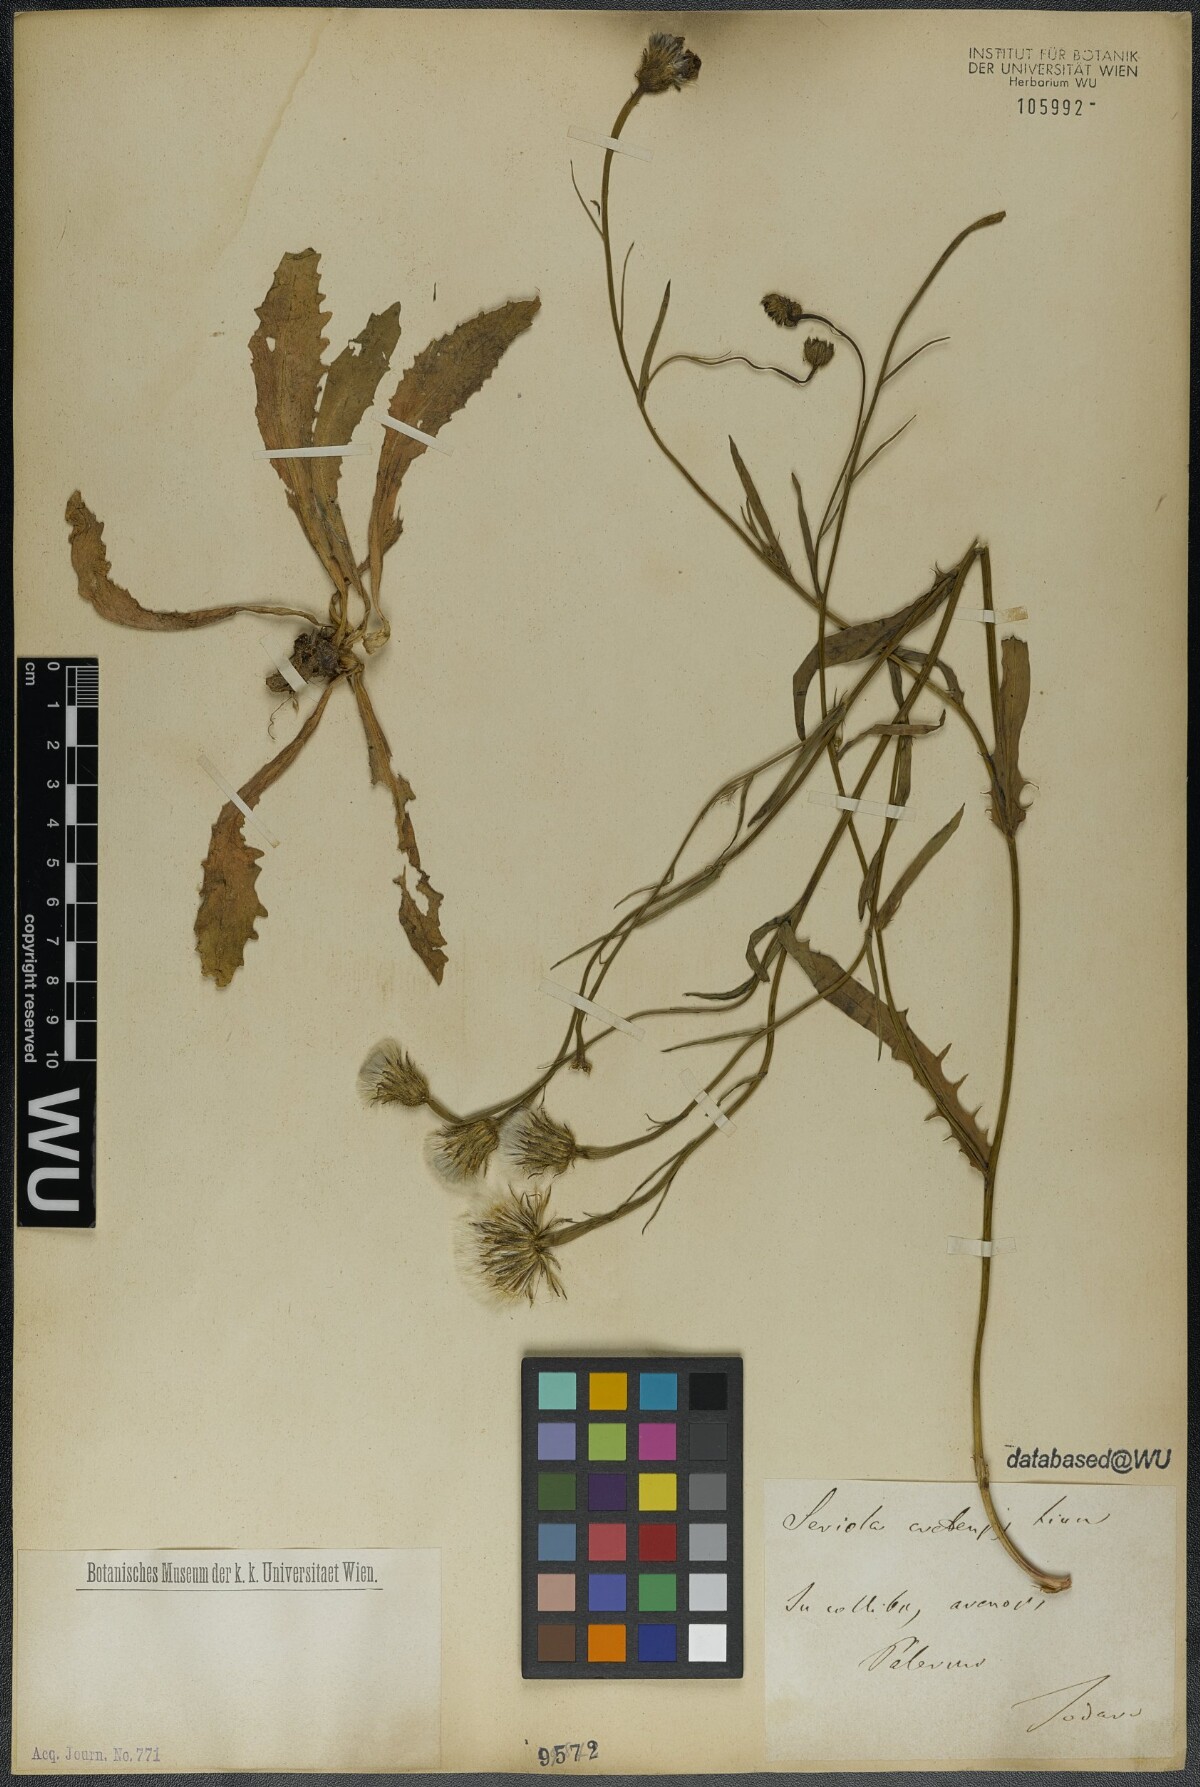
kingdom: Plantae
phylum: Tracheophyta
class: Magnoliopsida
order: Asterales
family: Asteraceae
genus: Hypochaeris
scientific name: Hypochaeris cretensis
